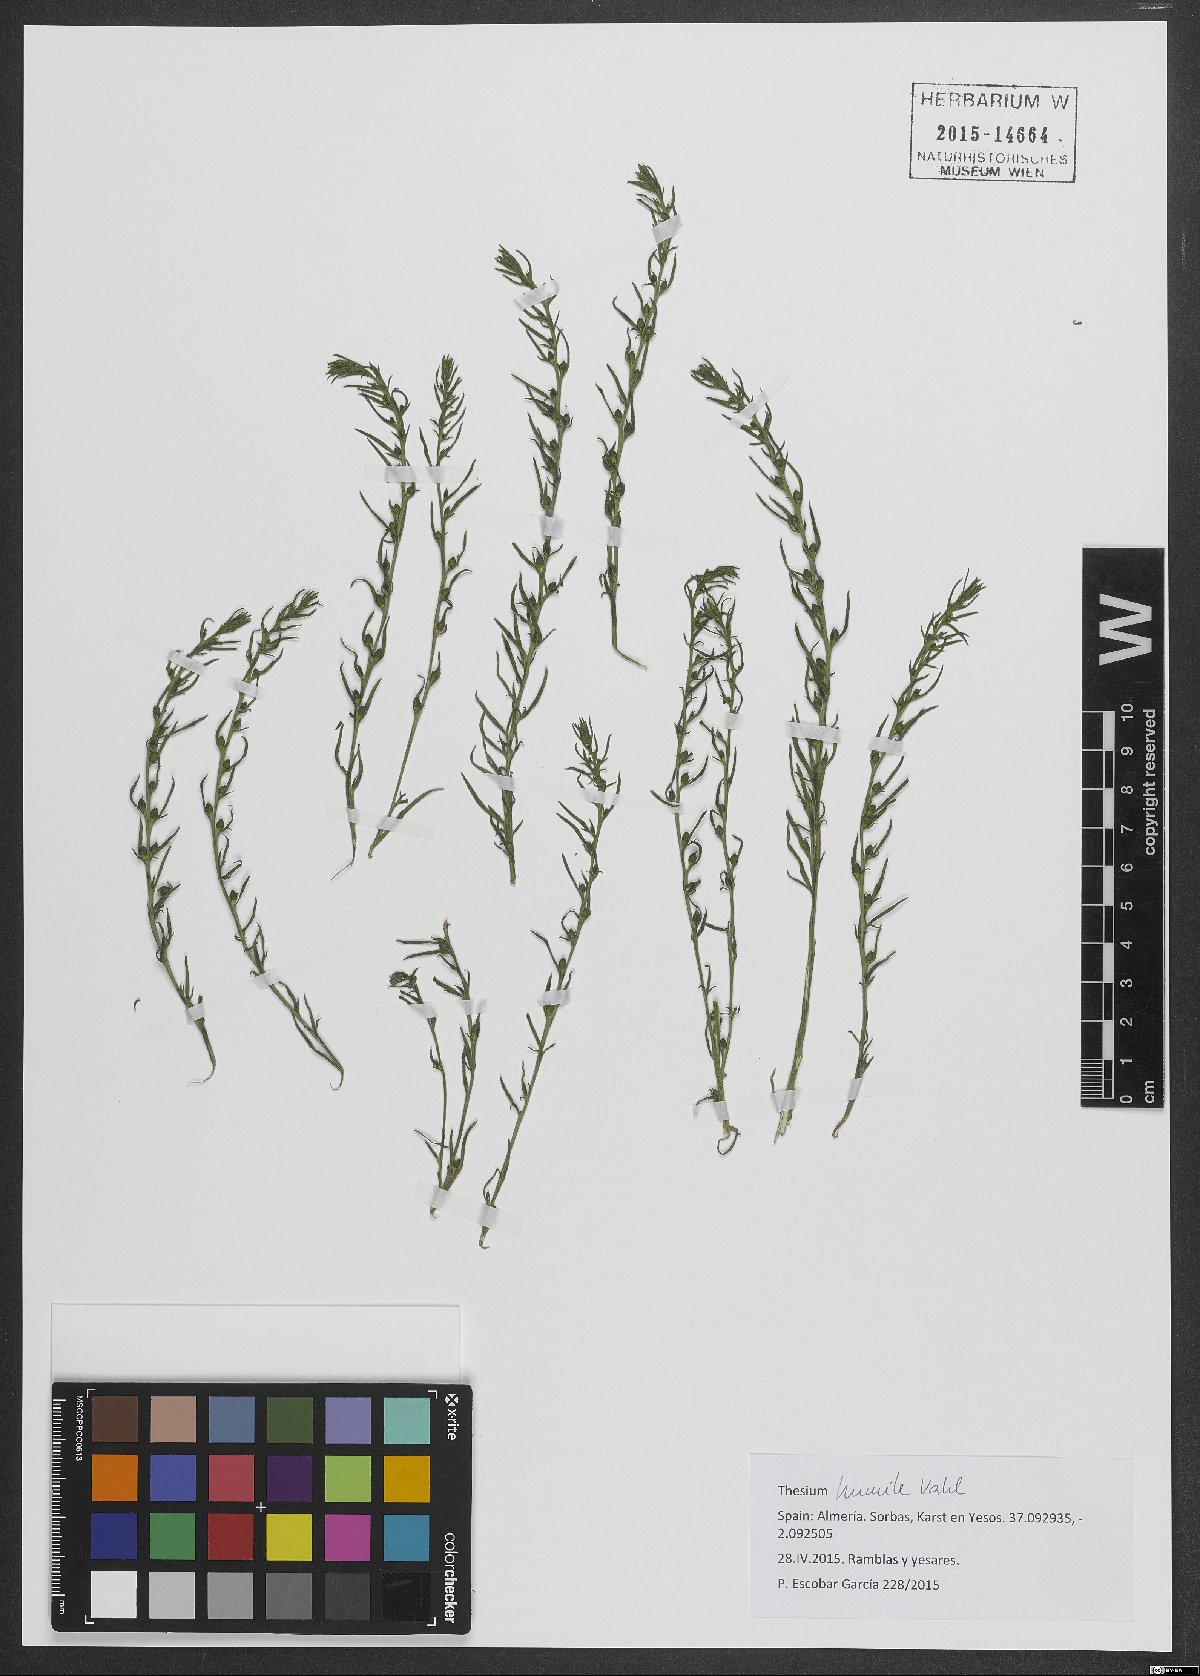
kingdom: Plantae
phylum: Tracheophyta
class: Magnoliopsida
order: Santalales
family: Thesiaceae
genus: Thesium
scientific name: Thesium humile
